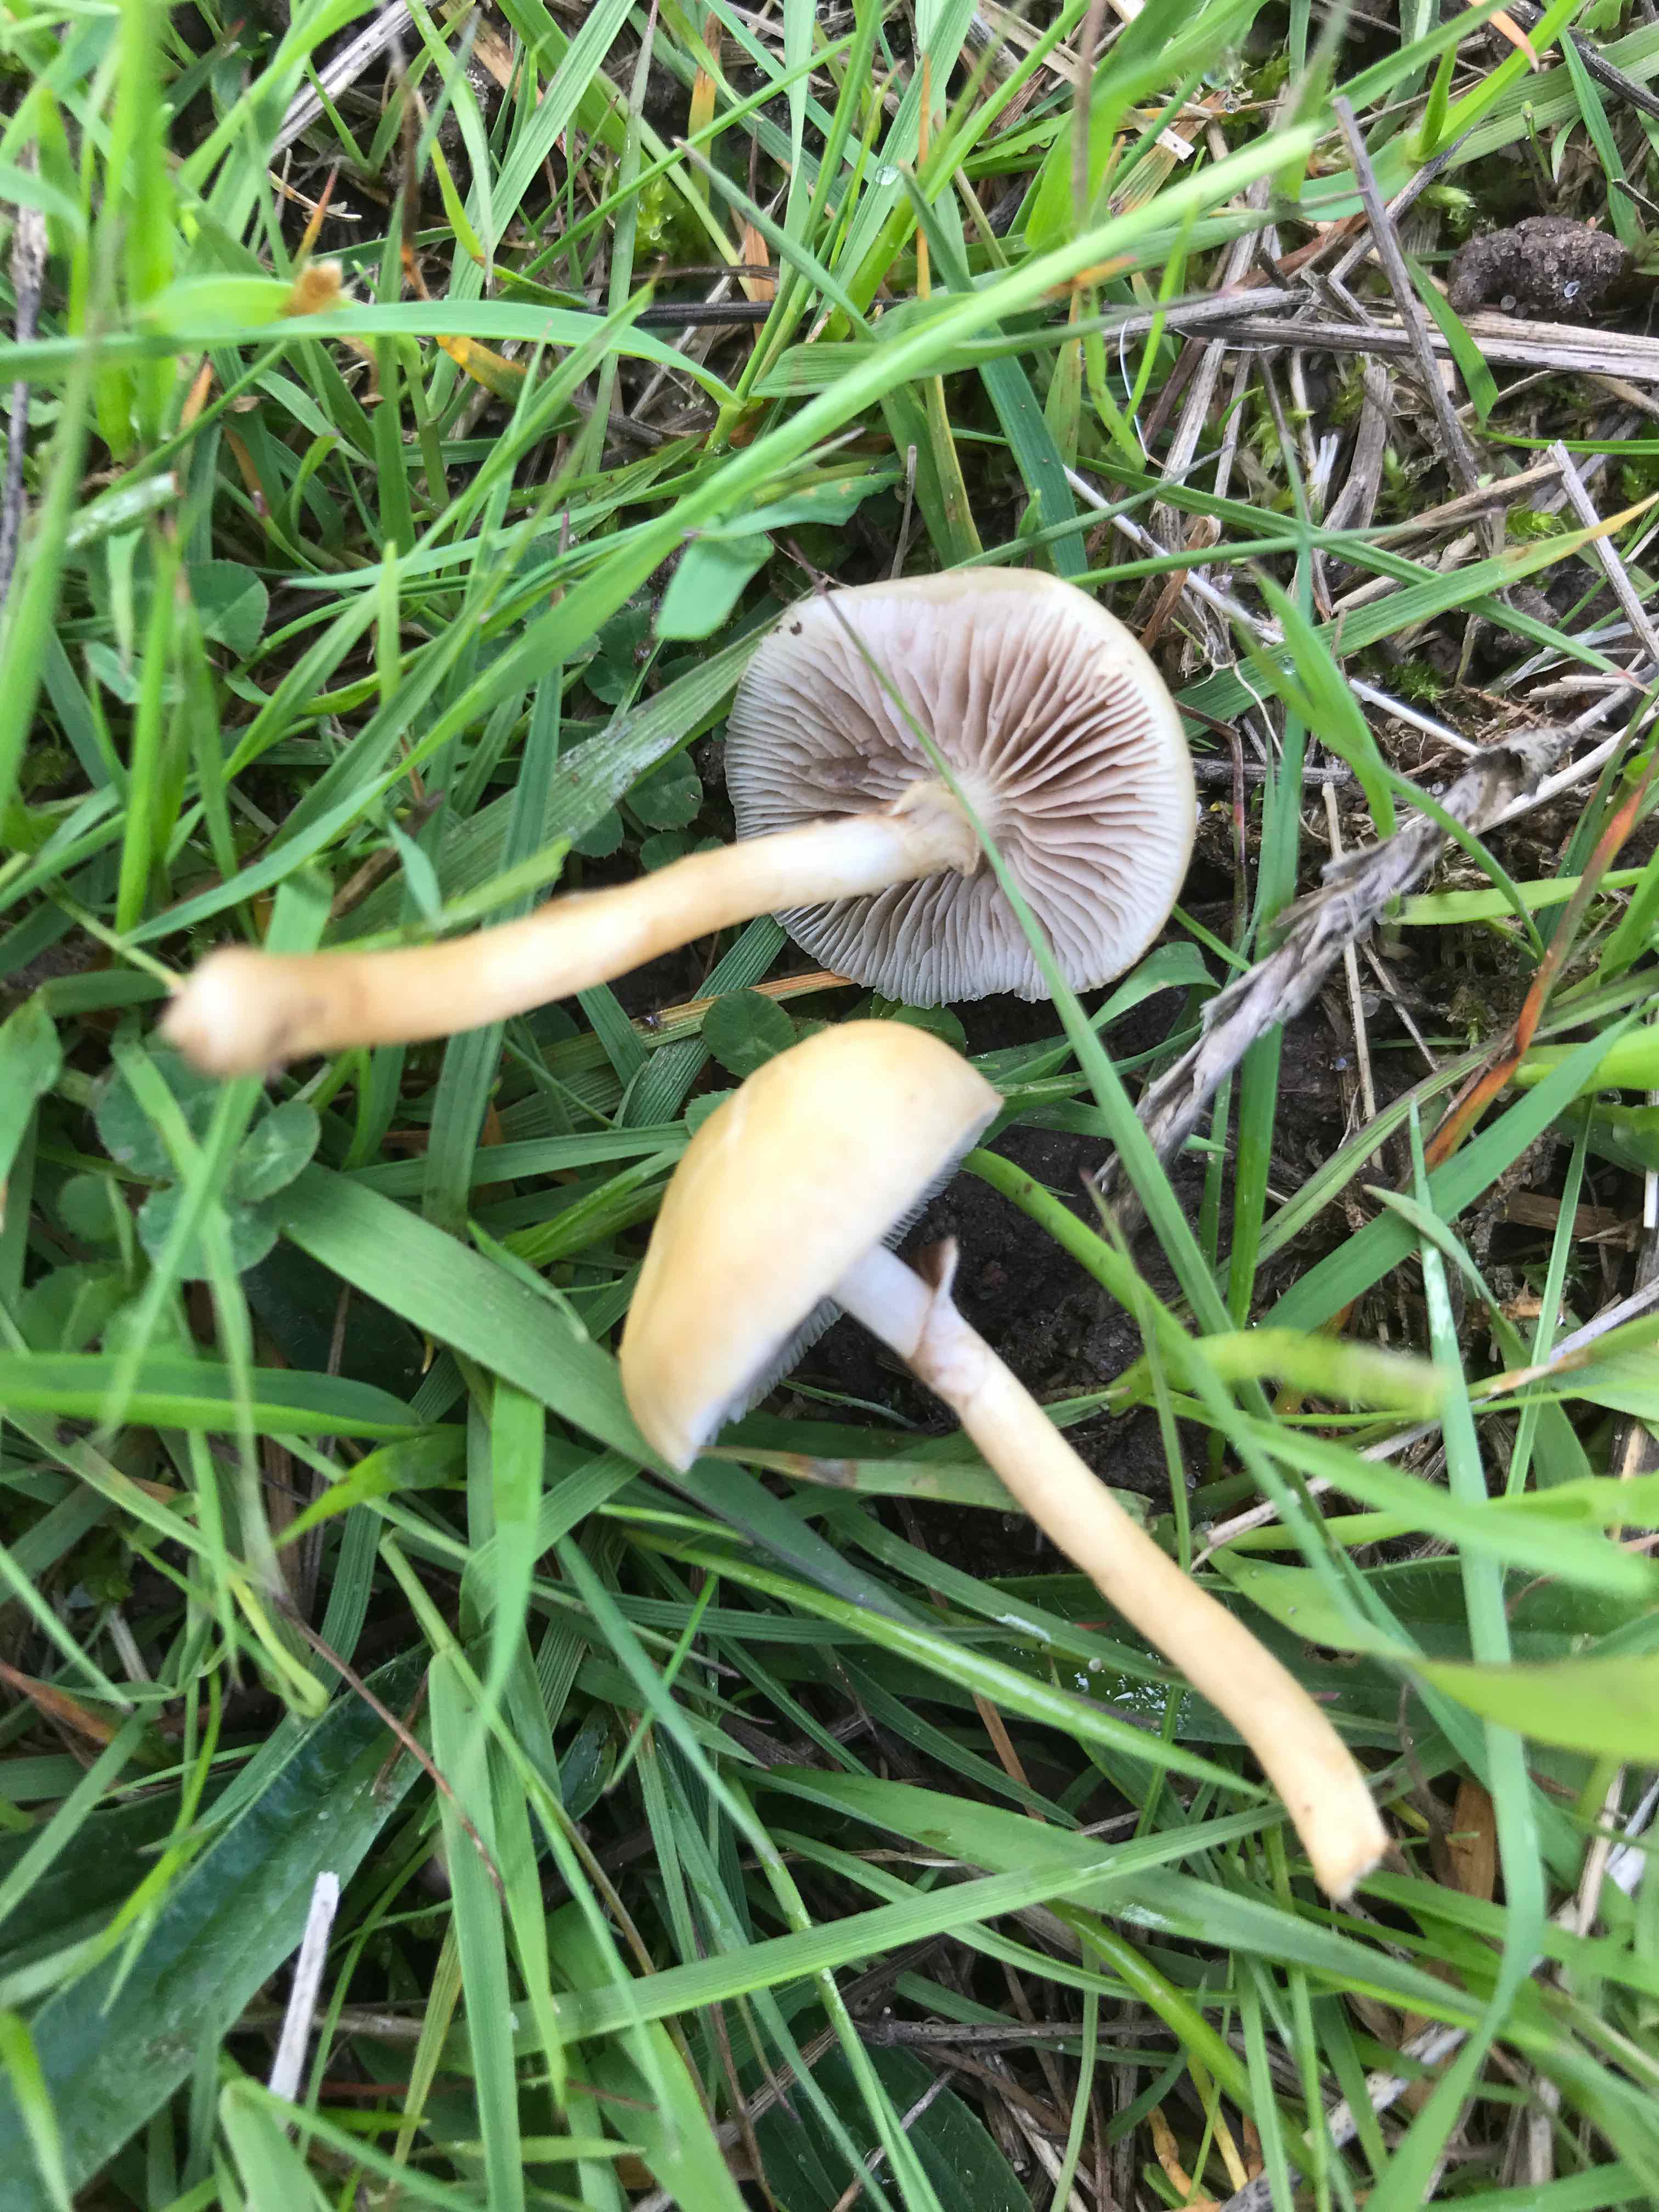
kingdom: Fungi
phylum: Basidiomycota
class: Agaricomycetes
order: Agaricales
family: Strophariaceae
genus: Agrocybe
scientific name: Agrocybe elatella
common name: mose-agerhat
